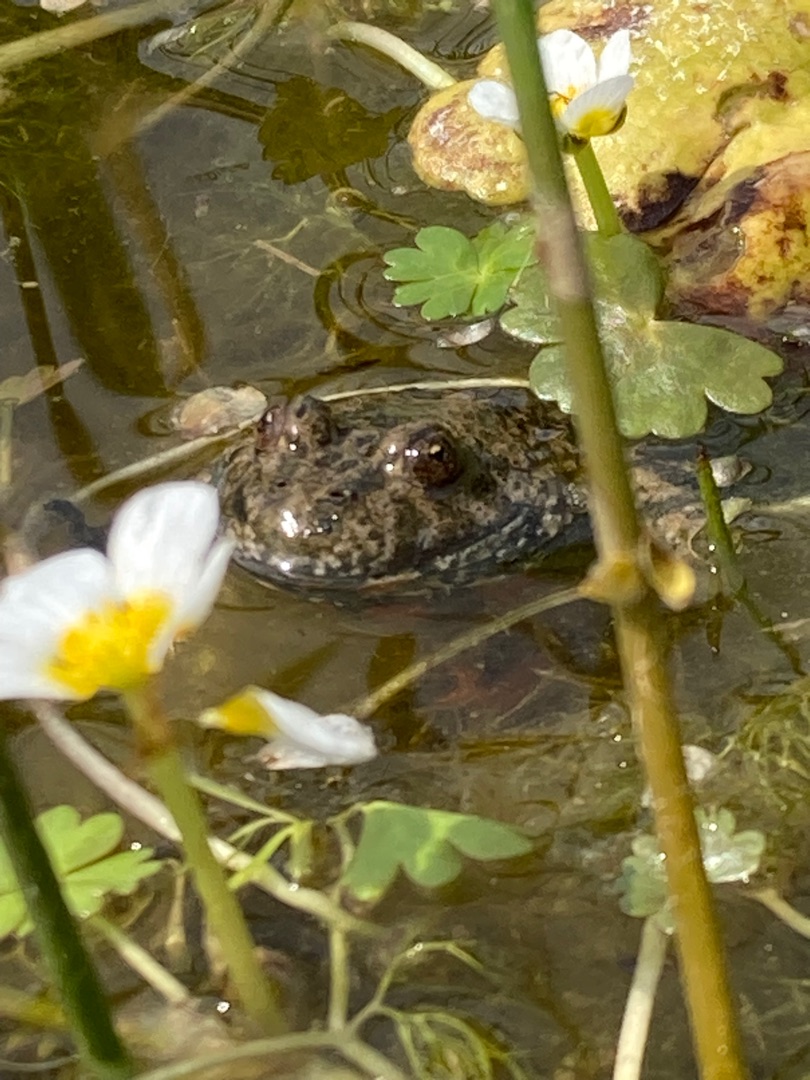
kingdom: Animalia
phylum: Chordata
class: Amphibia
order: Anura
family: Bombinatoridae
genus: Bombina
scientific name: Bombina bombina
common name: Klokkefrø
